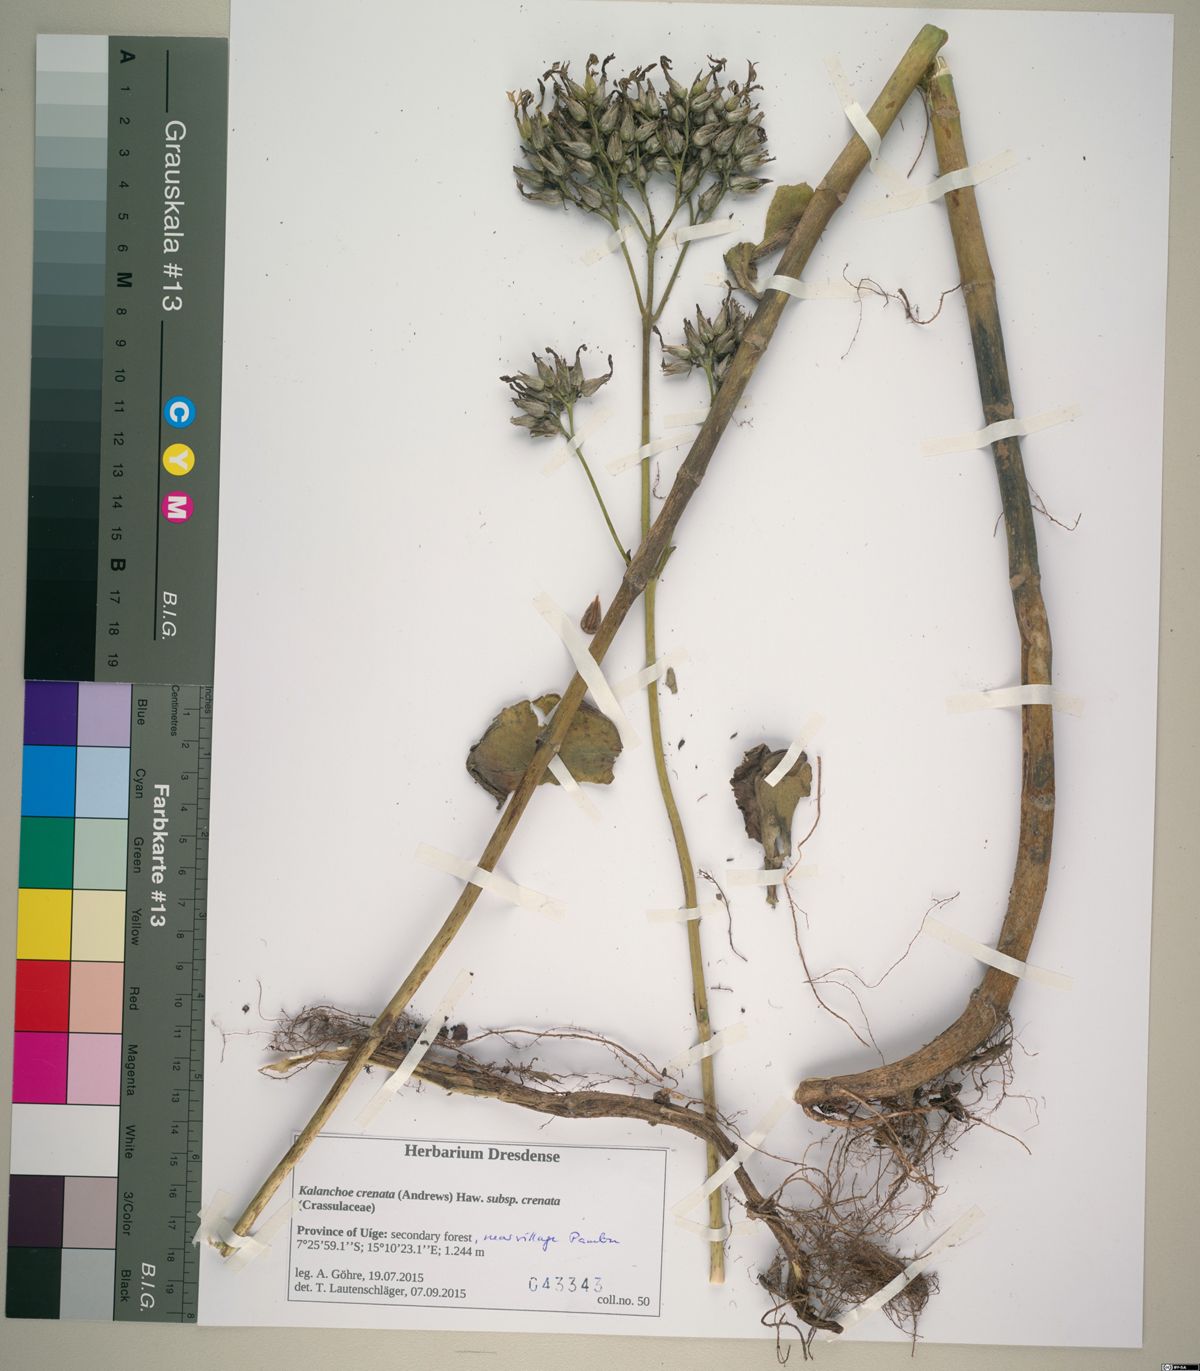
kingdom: Plantae
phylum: Tracheophyta
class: Magnoliopsida
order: Saxifragales
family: Crassulaceae
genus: Kalanchoe
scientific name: Kalanchoe laciniata
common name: Christmastree plant
